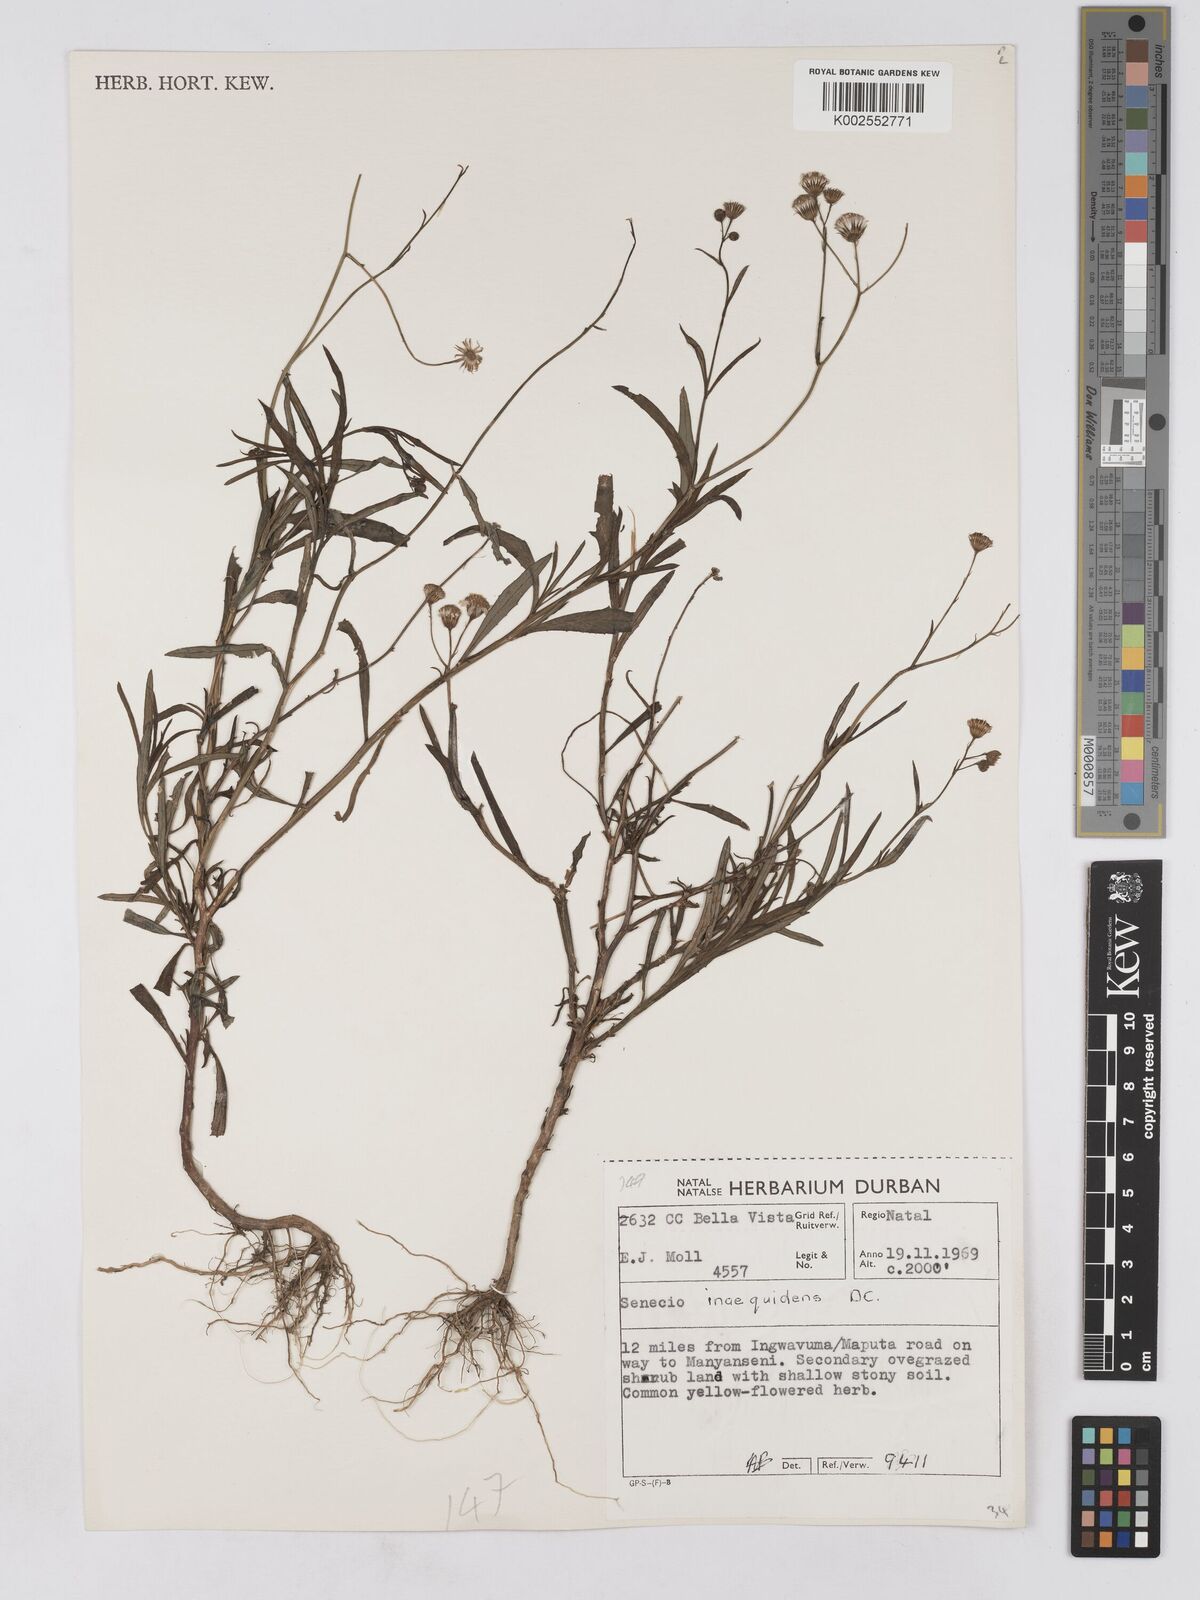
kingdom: Plantae
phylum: Tracheophyta
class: Magnoliopsida
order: Asterales
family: Asteraceae
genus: Senecio
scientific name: Senecio madagascariensis
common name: Madagascar ragwort
